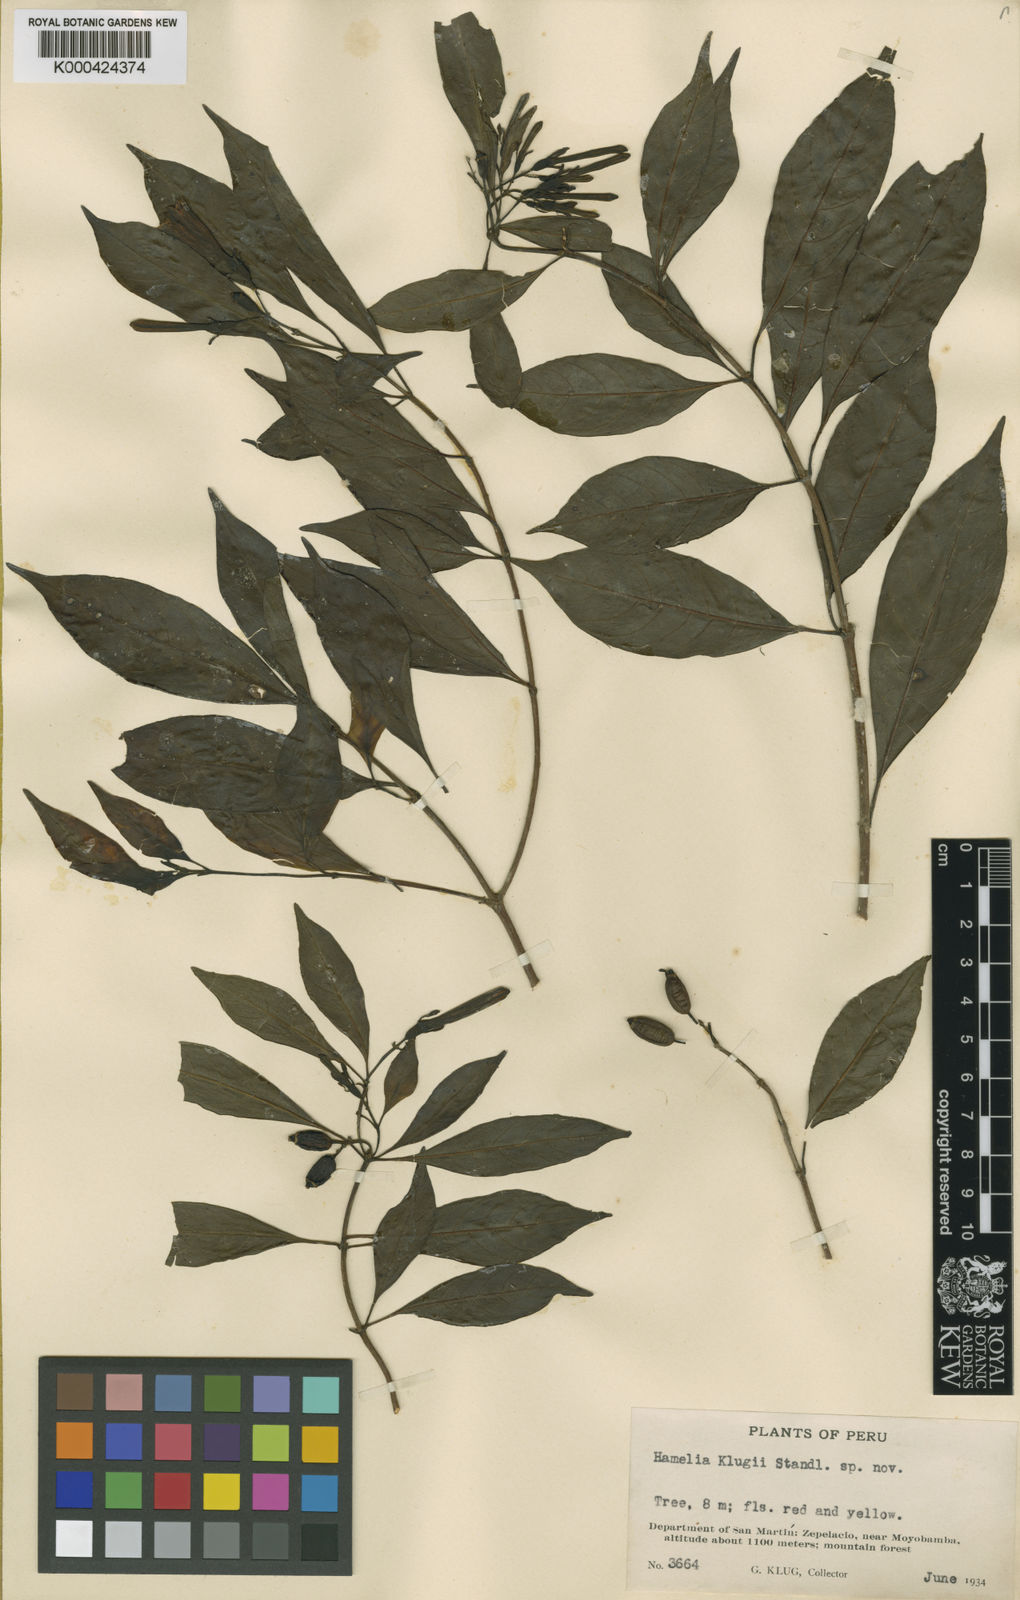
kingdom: Plantae
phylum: Tracheophyta
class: Magnoliopsida
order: Gentianales
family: Rubiaceae
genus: Hamelia
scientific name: Hamelia calycosa
